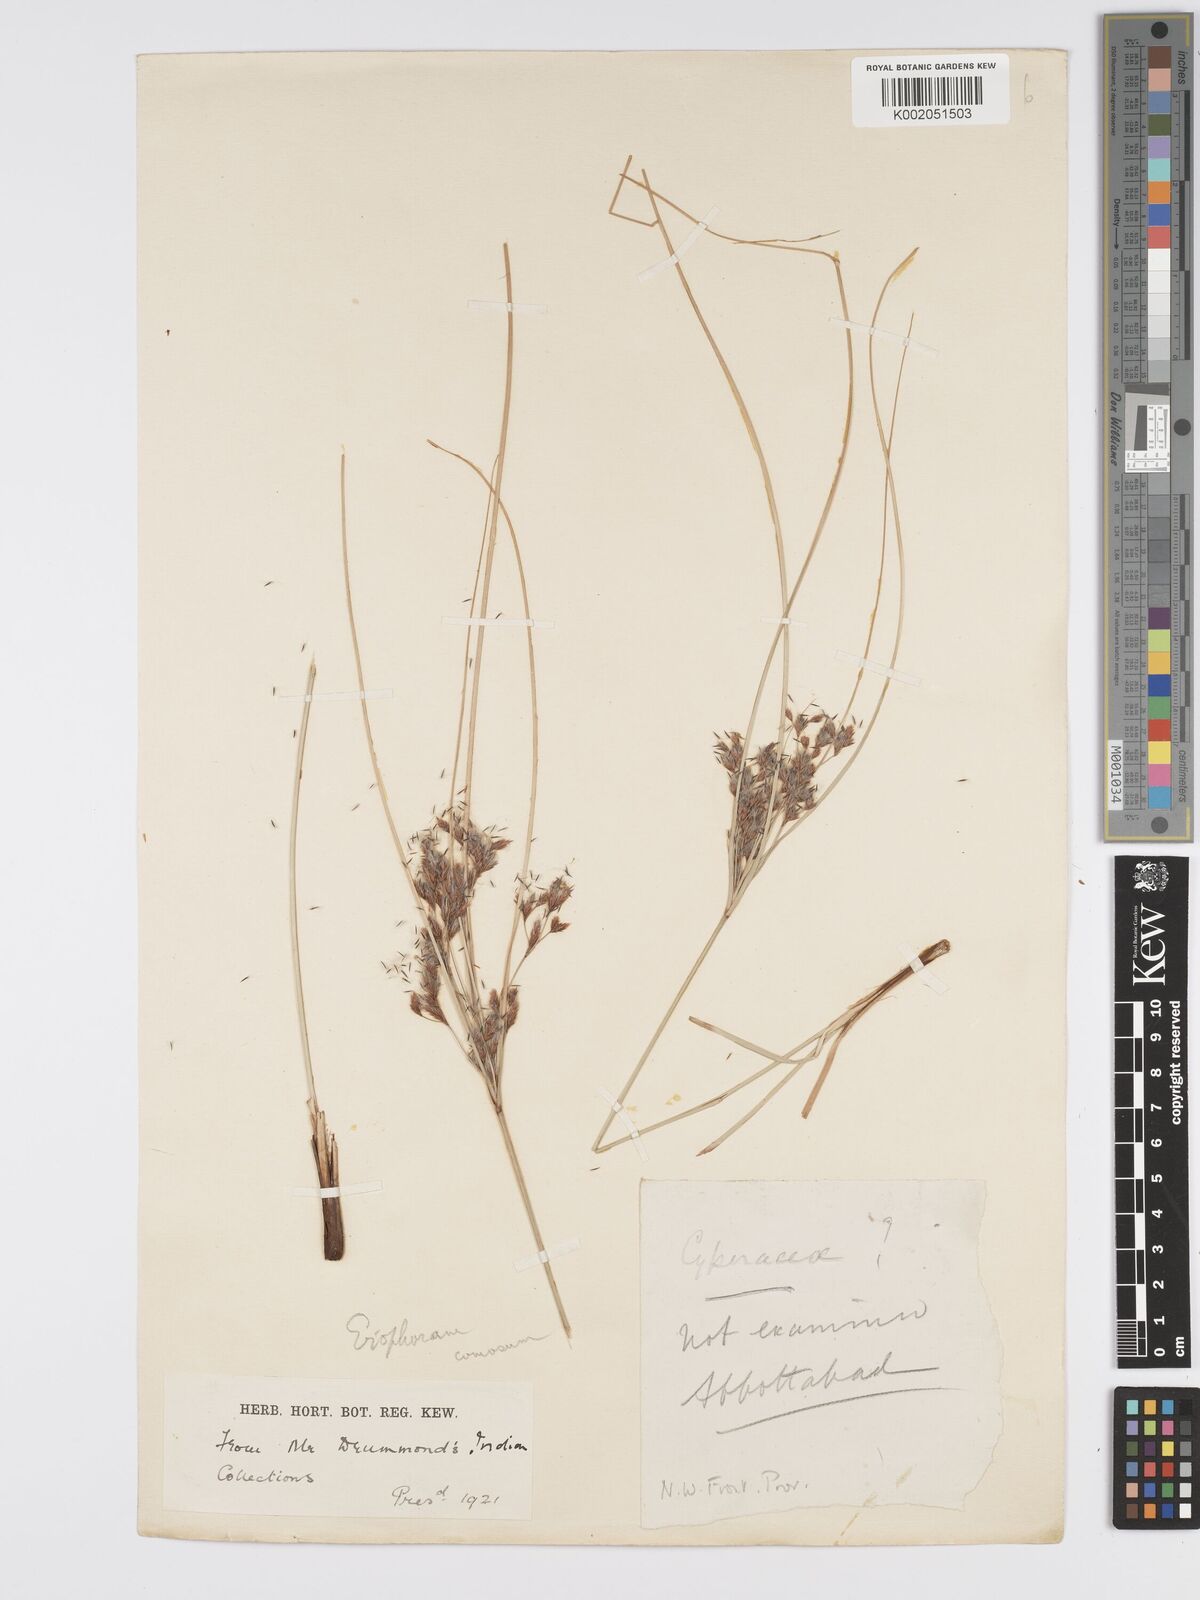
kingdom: Plantae
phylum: Tracheophyta
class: Liliopsida
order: Poales
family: Cyperaceae
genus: Erioscirpus
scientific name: Erioscirpus comosus
